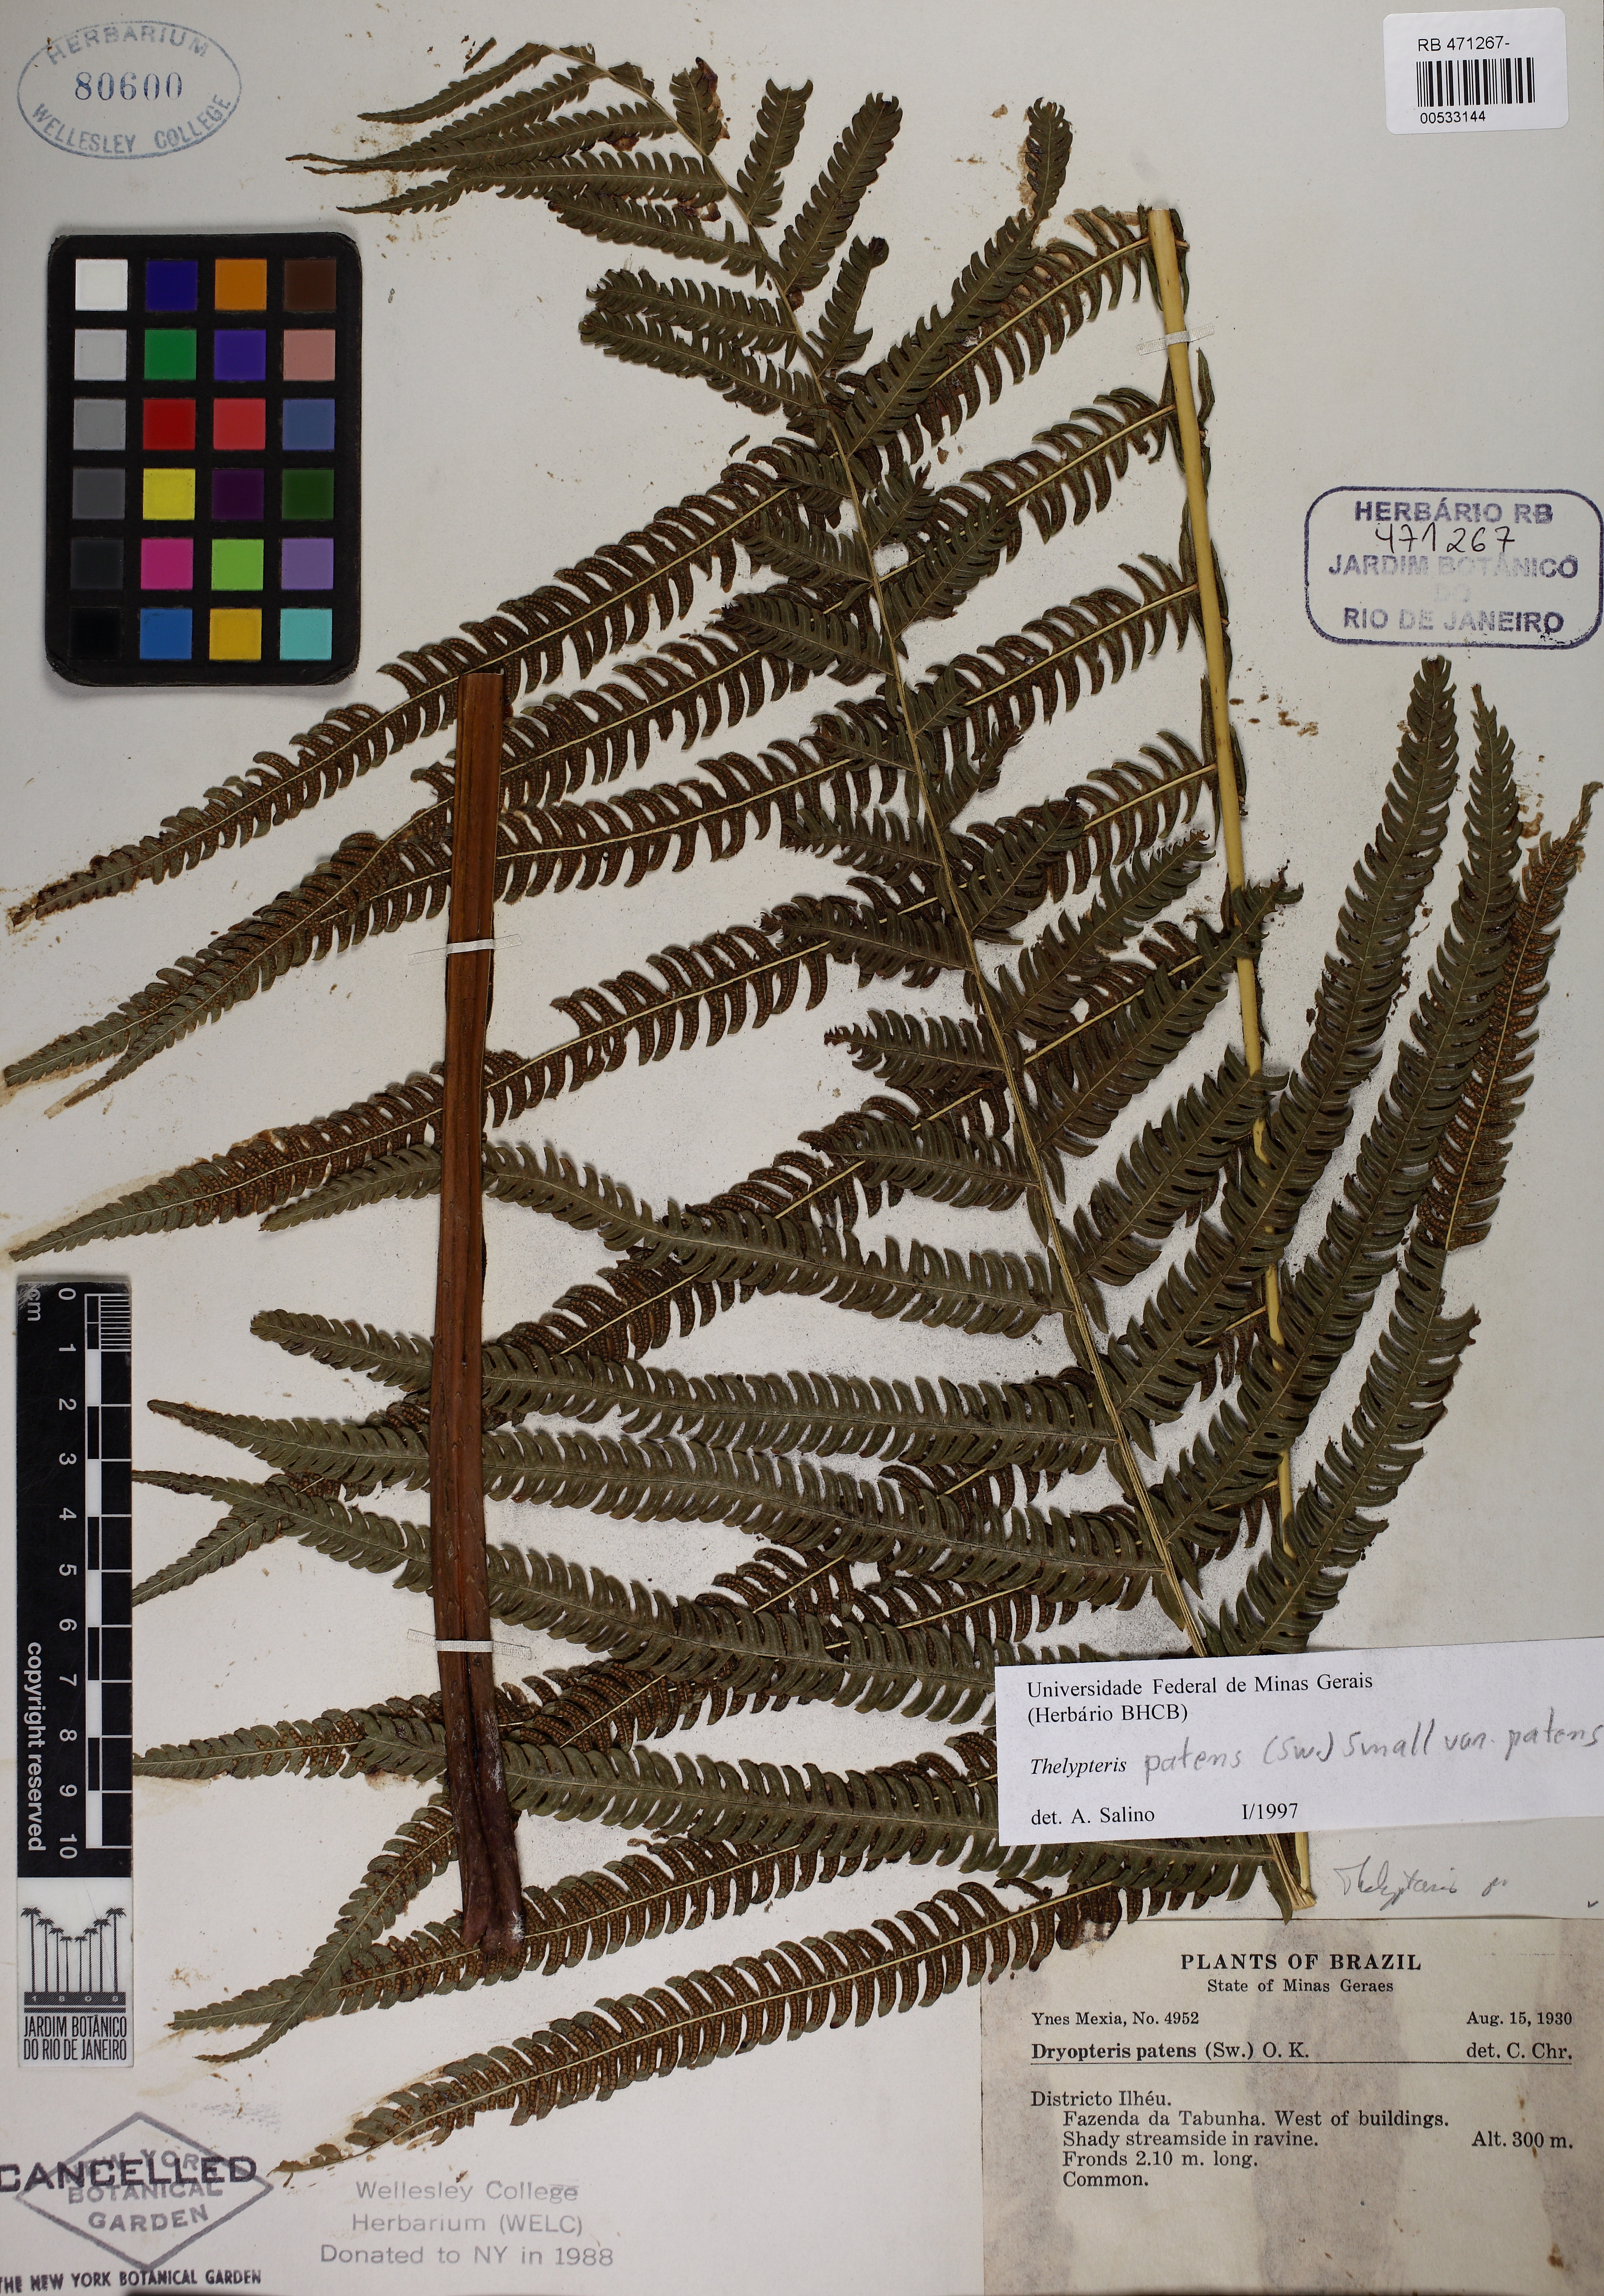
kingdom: Plantae
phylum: Tracheophyta
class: Polypodiopsida
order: Polypodiales
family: Thelypteridaceae
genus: Pelazoneuron
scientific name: Pelazoneuron patens
